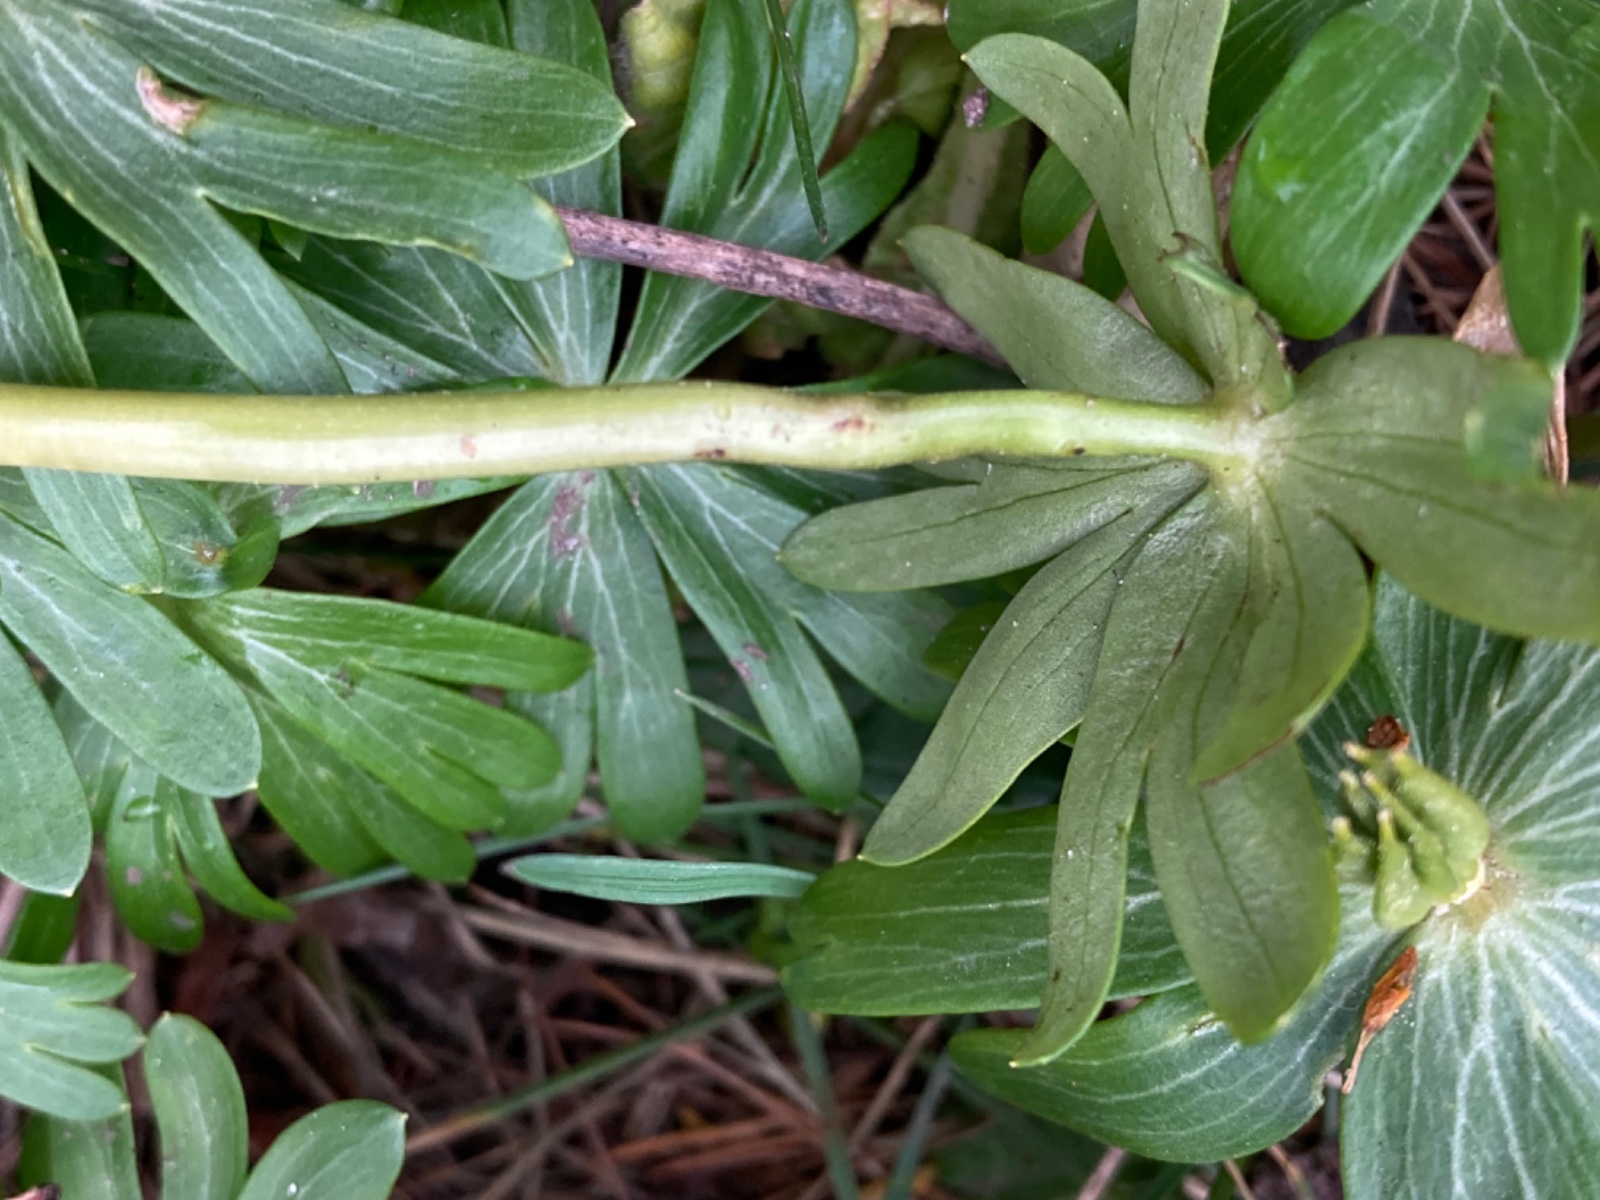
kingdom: Fungi
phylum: Basidiomycota
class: Ustilaginomycetes
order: Urocystidales
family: Urocystidaceae
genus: Urocystis
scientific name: Urocystis eranthidis
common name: erantis-brand
